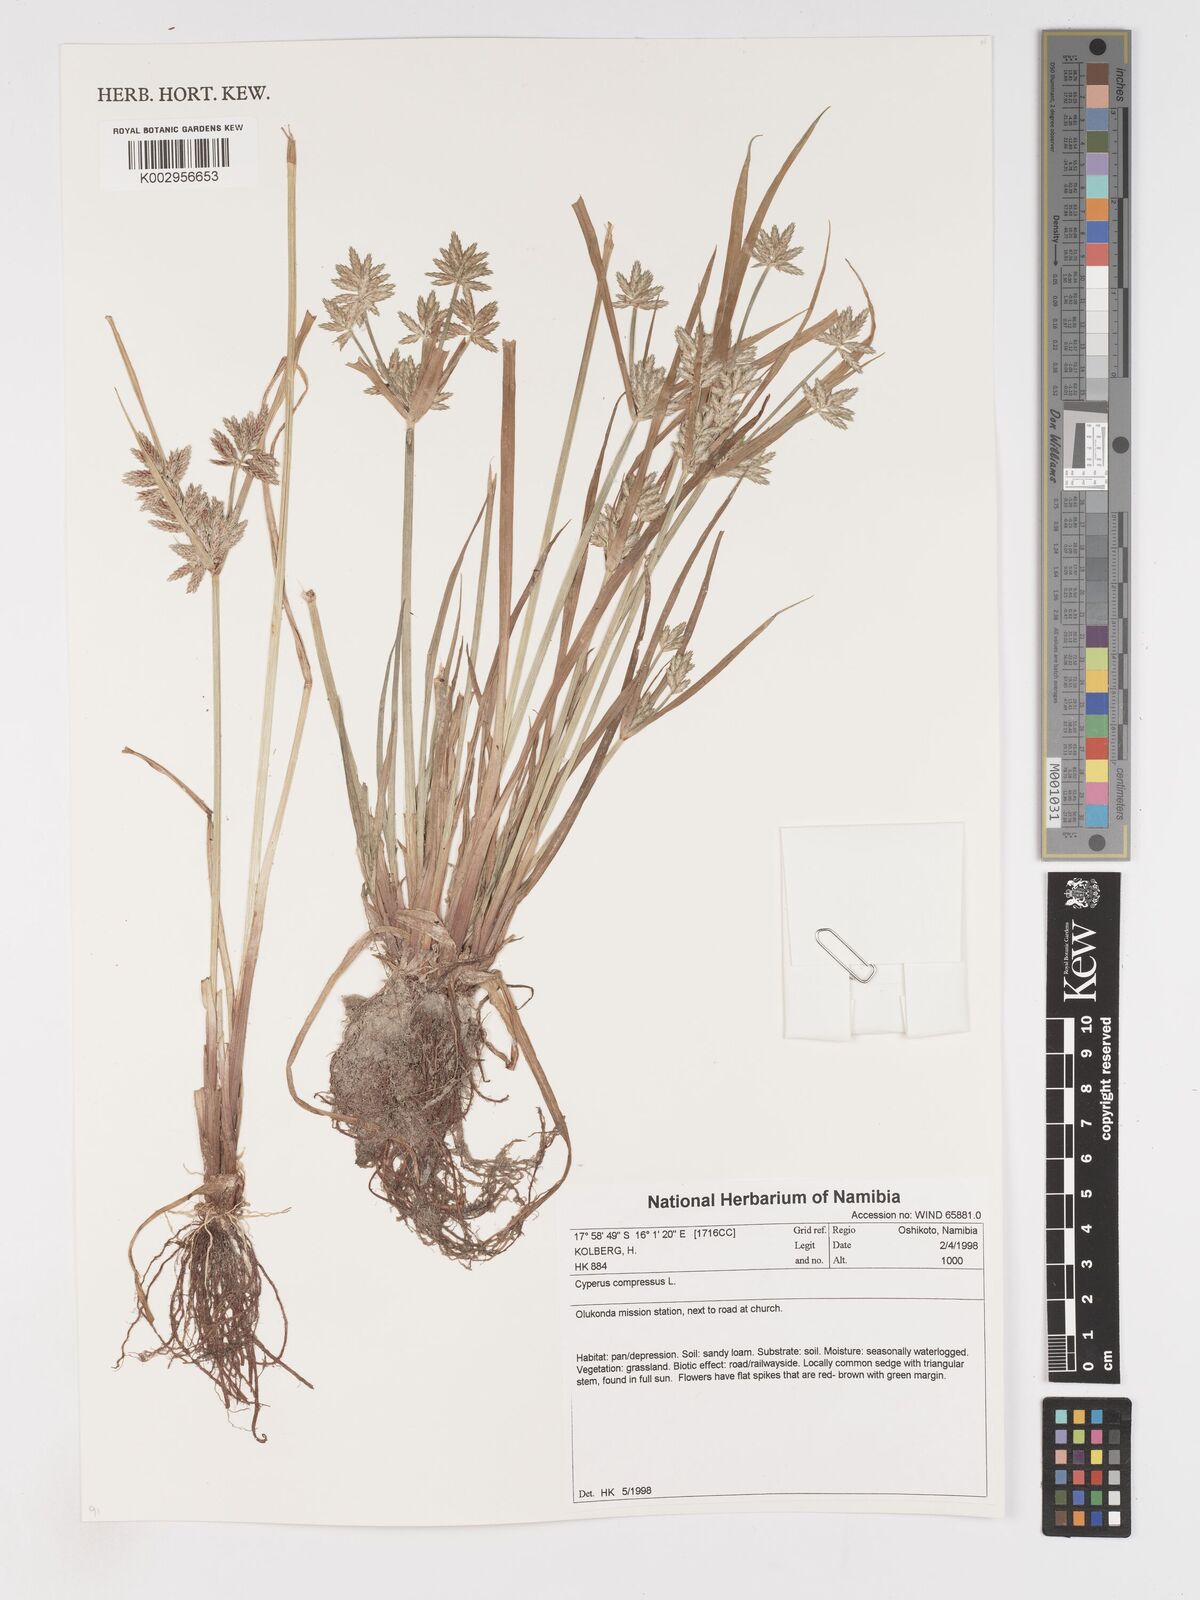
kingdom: Plantae
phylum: Tracheophyta
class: Liliopsida
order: Poales
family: Cyperaceae
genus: Cyperus
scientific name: Cyperus compressus
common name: Poorland flatsedge
